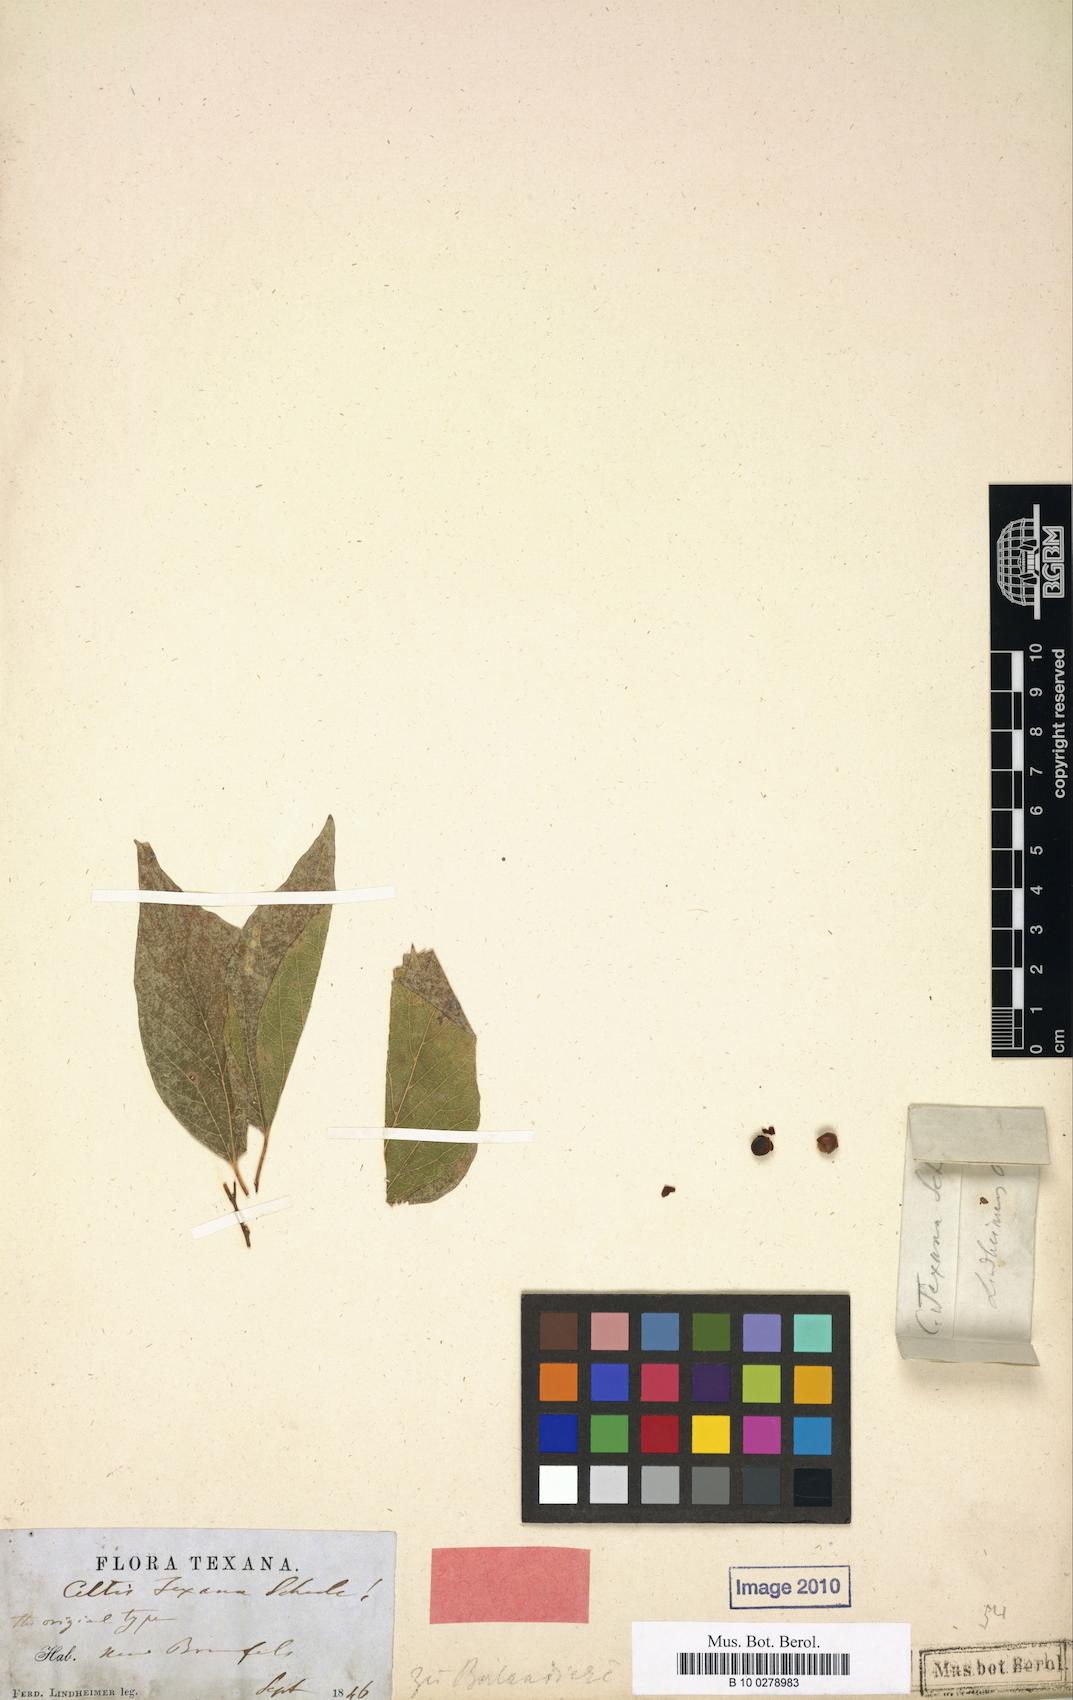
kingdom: Plantae
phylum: Tracheophyta
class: Magnoliopsida
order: Rosales
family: Cannabaceae
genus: Celtis
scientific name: Celtis laevigata
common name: Sugarberry
